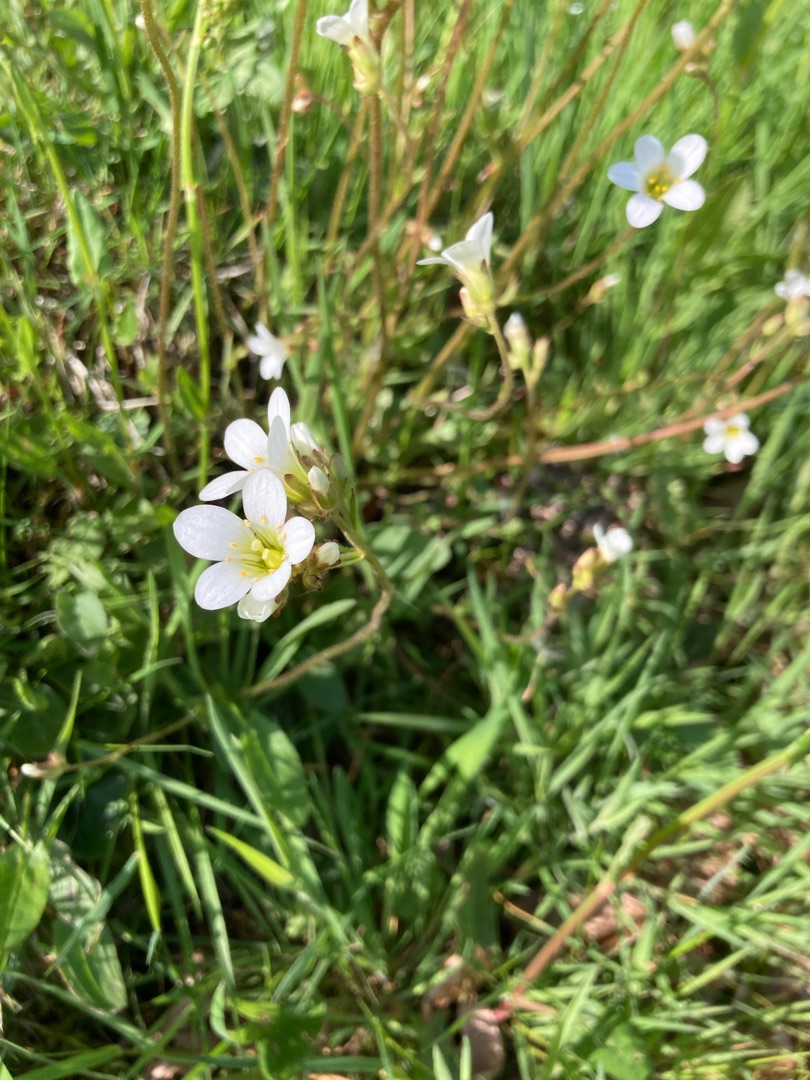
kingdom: Plantae
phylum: Tracheophyta
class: Magnoliopsida
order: Saxifragales
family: Saxifragaceae
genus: Saxifraga
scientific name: Saxifraga granulata
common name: Kornet stenbræk
